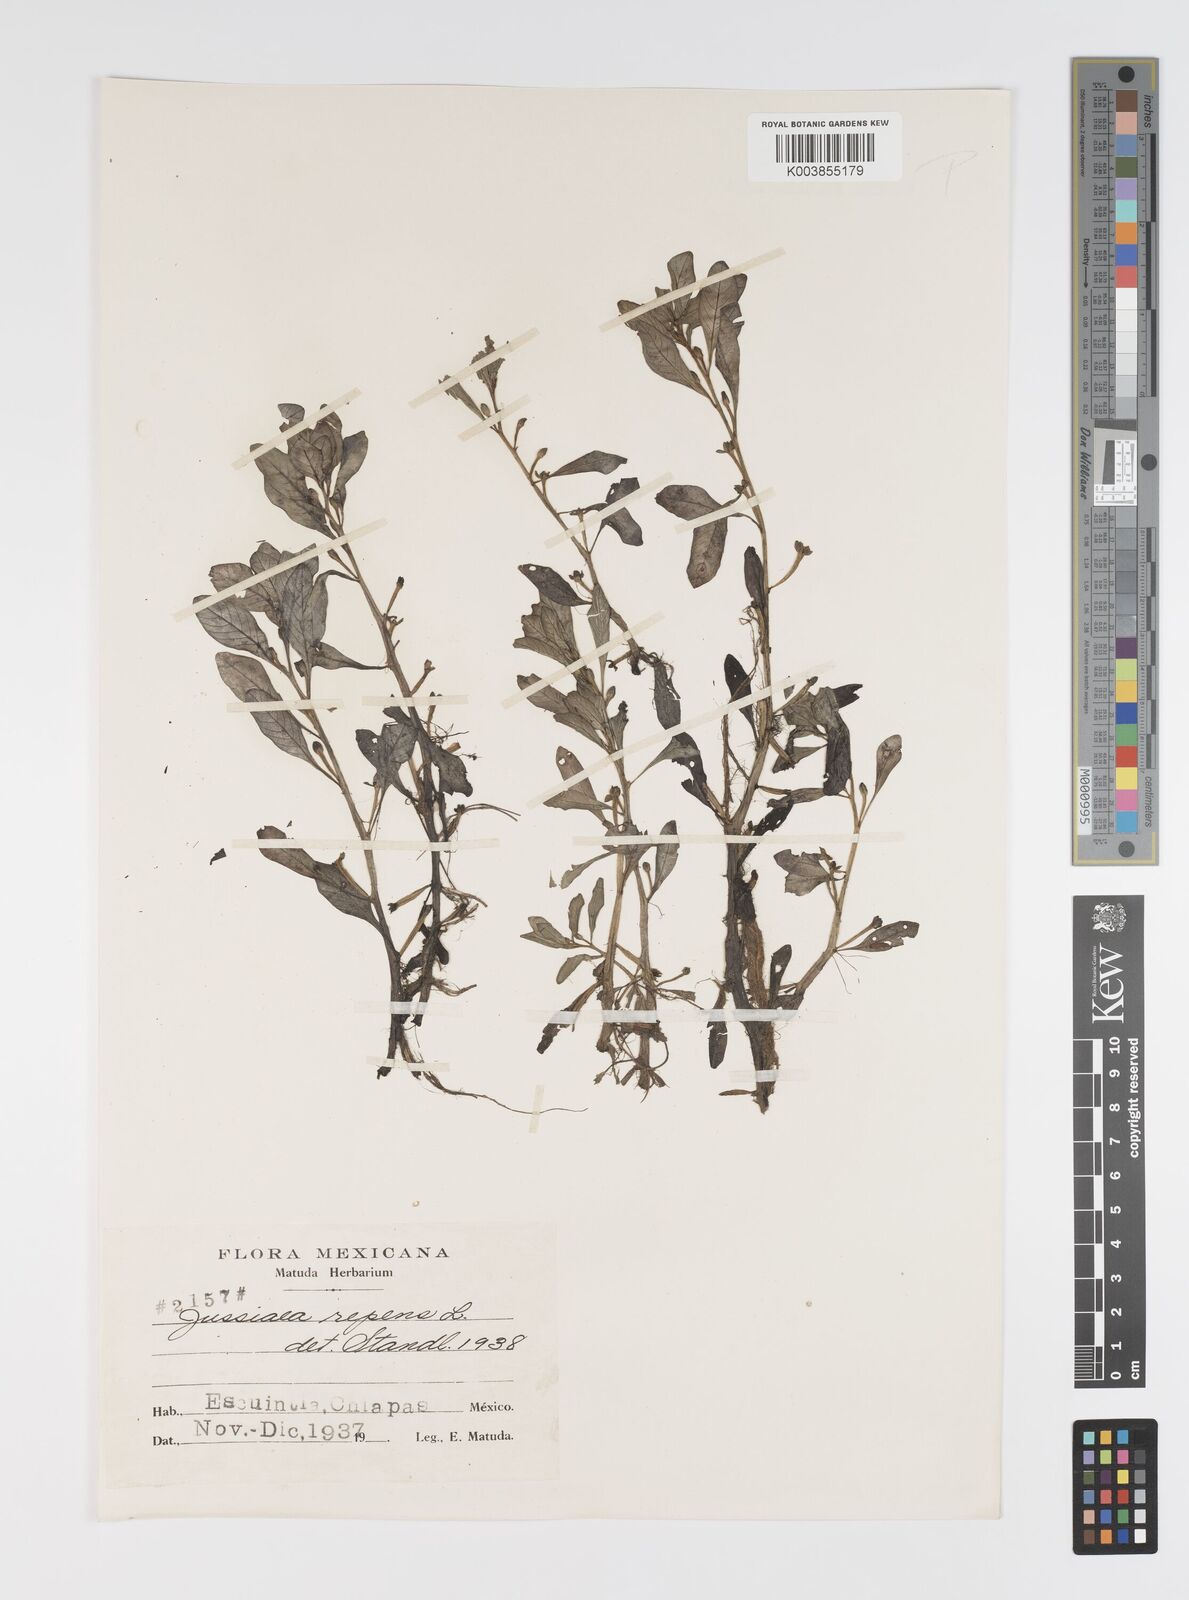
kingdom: Plantae
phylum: Tracheophyta
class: Magnoliopsida
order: Myrtales
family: Onagraceae
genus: Ludwigia
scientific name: Ludwigia peploides
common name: Floating primrose-willow
